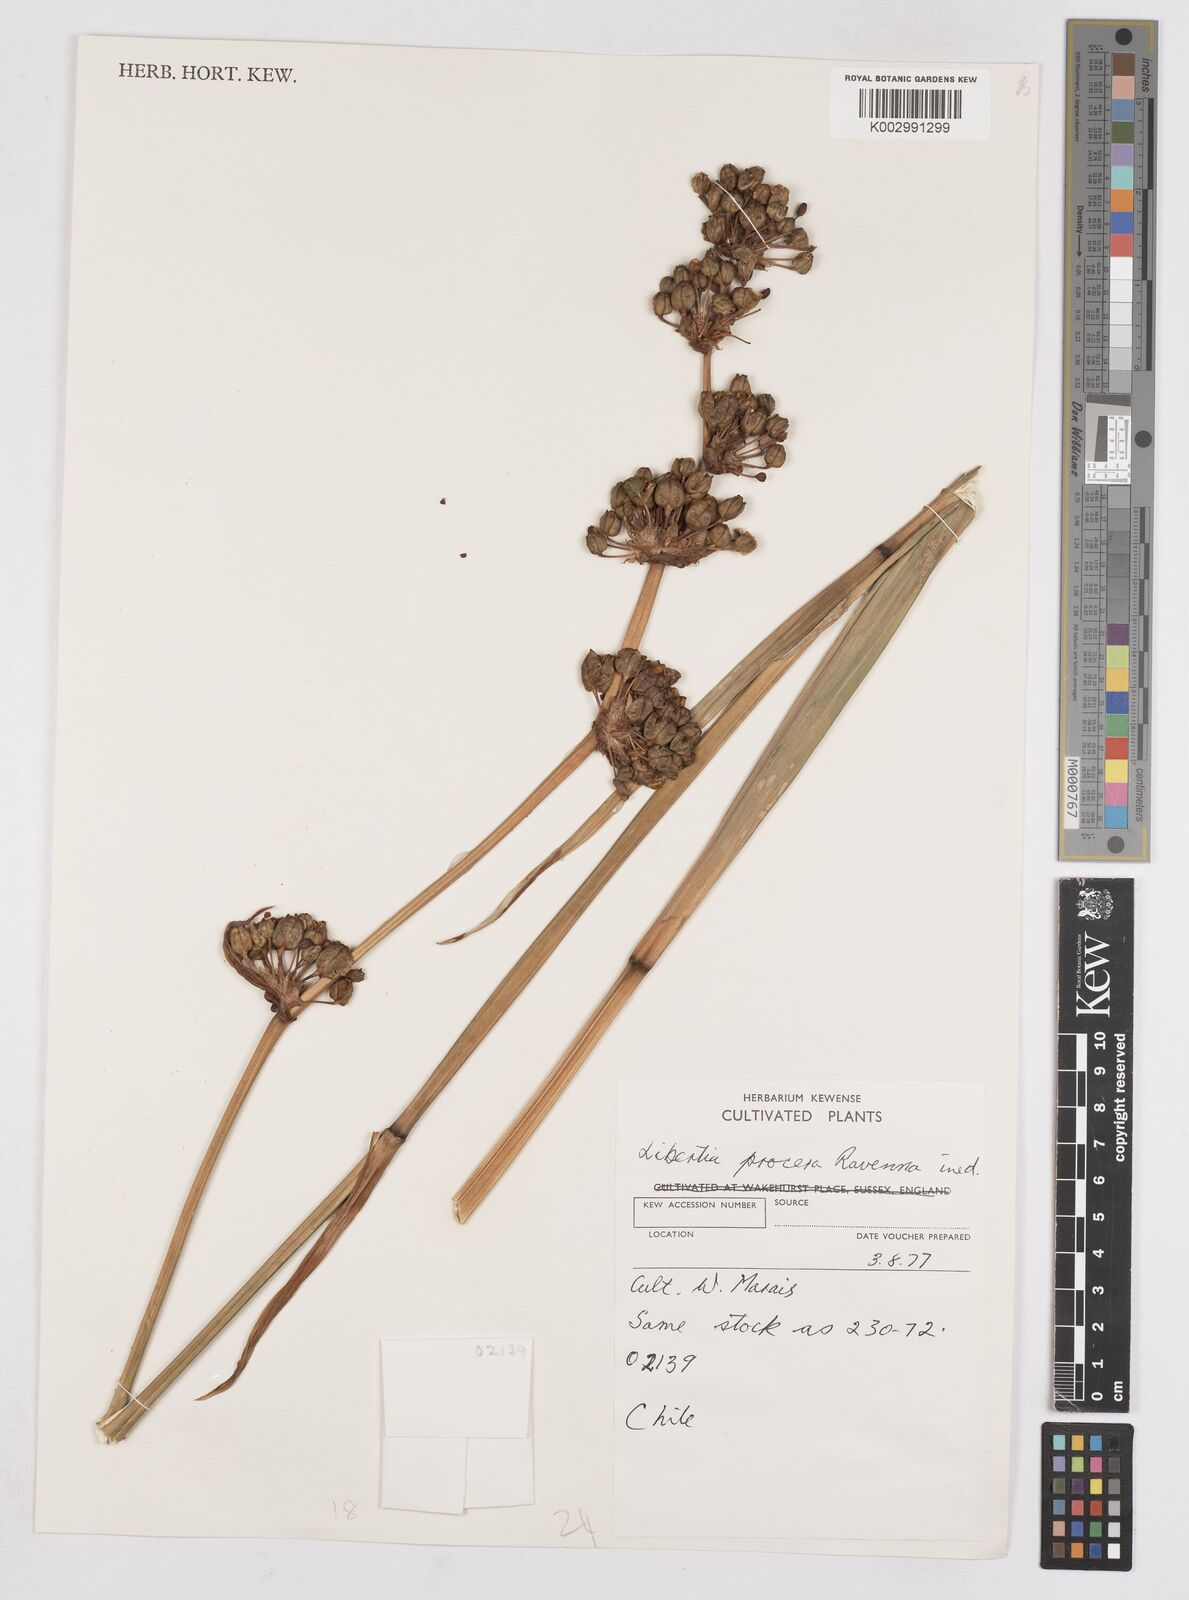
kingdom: Plantae
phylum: Tracheophyta
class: Liliopsida
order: Asparagales
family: Iridaceae
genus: Libertia
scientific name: Libertia
